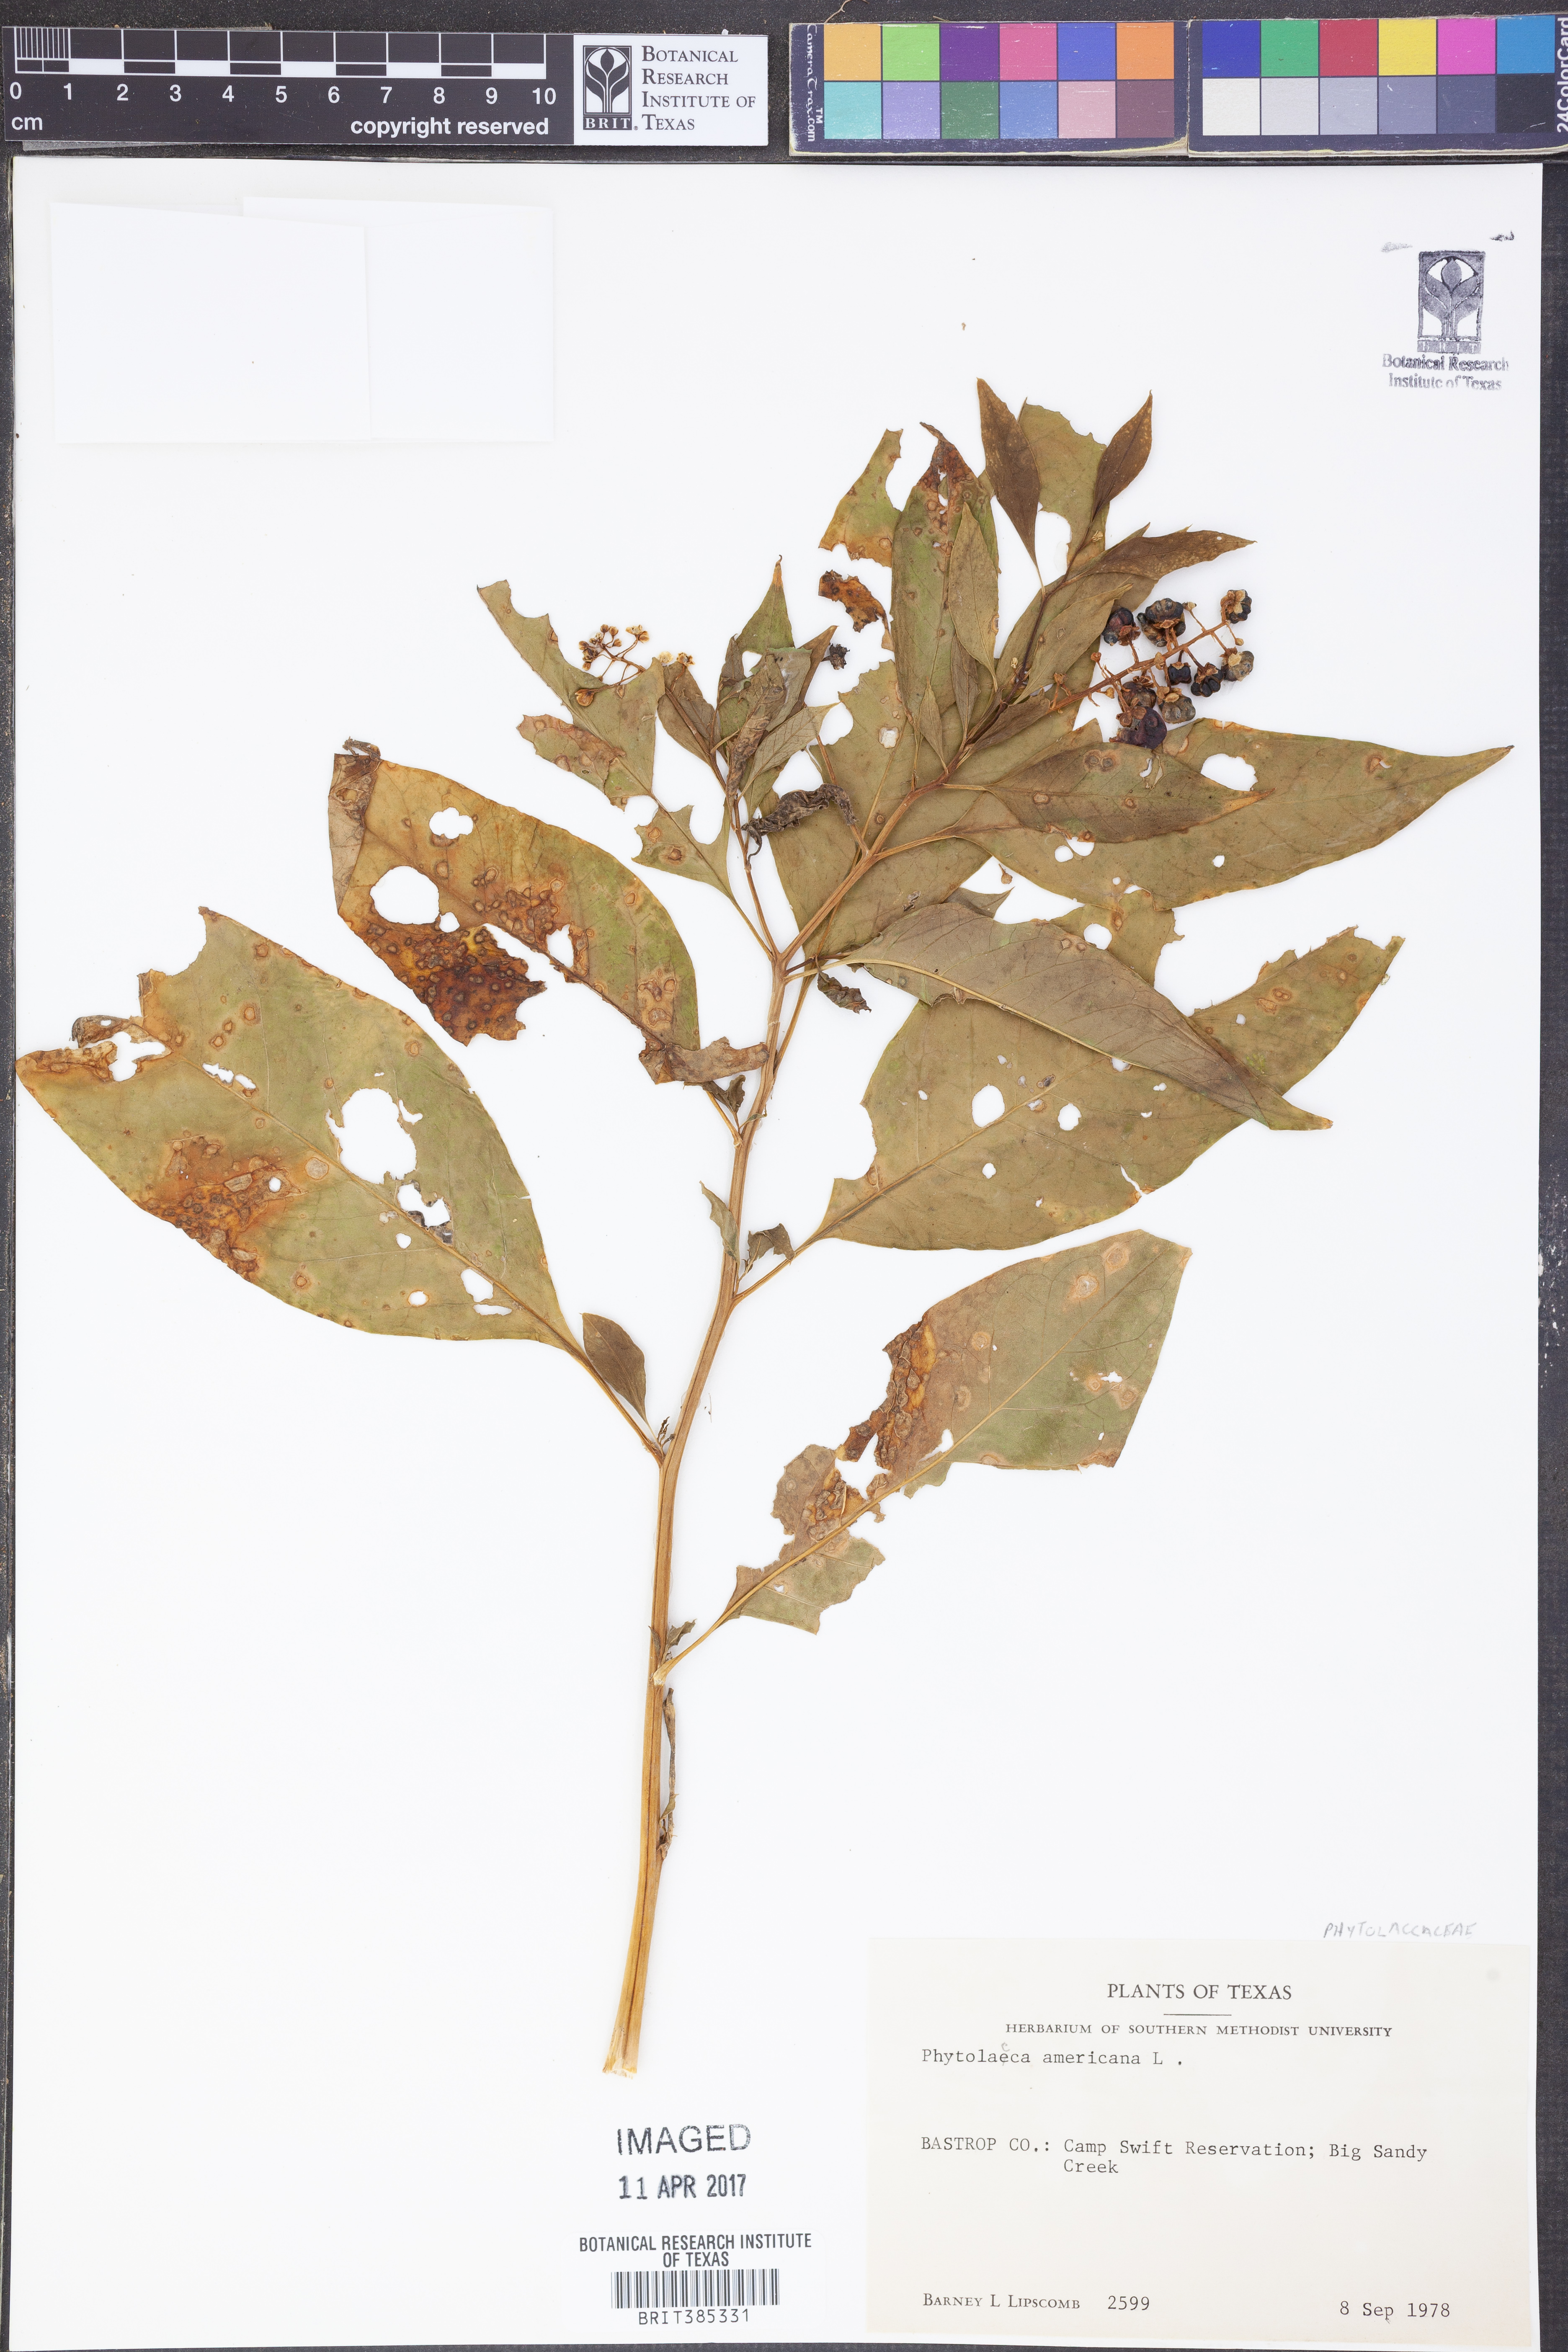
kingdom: Plantae
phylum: Tracheophyta
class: Magnoliopsida
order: Caryophyllales
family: Phytolaccaceae
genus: Phytolacca
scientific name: Phytolacca americana
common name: American pokeweed
